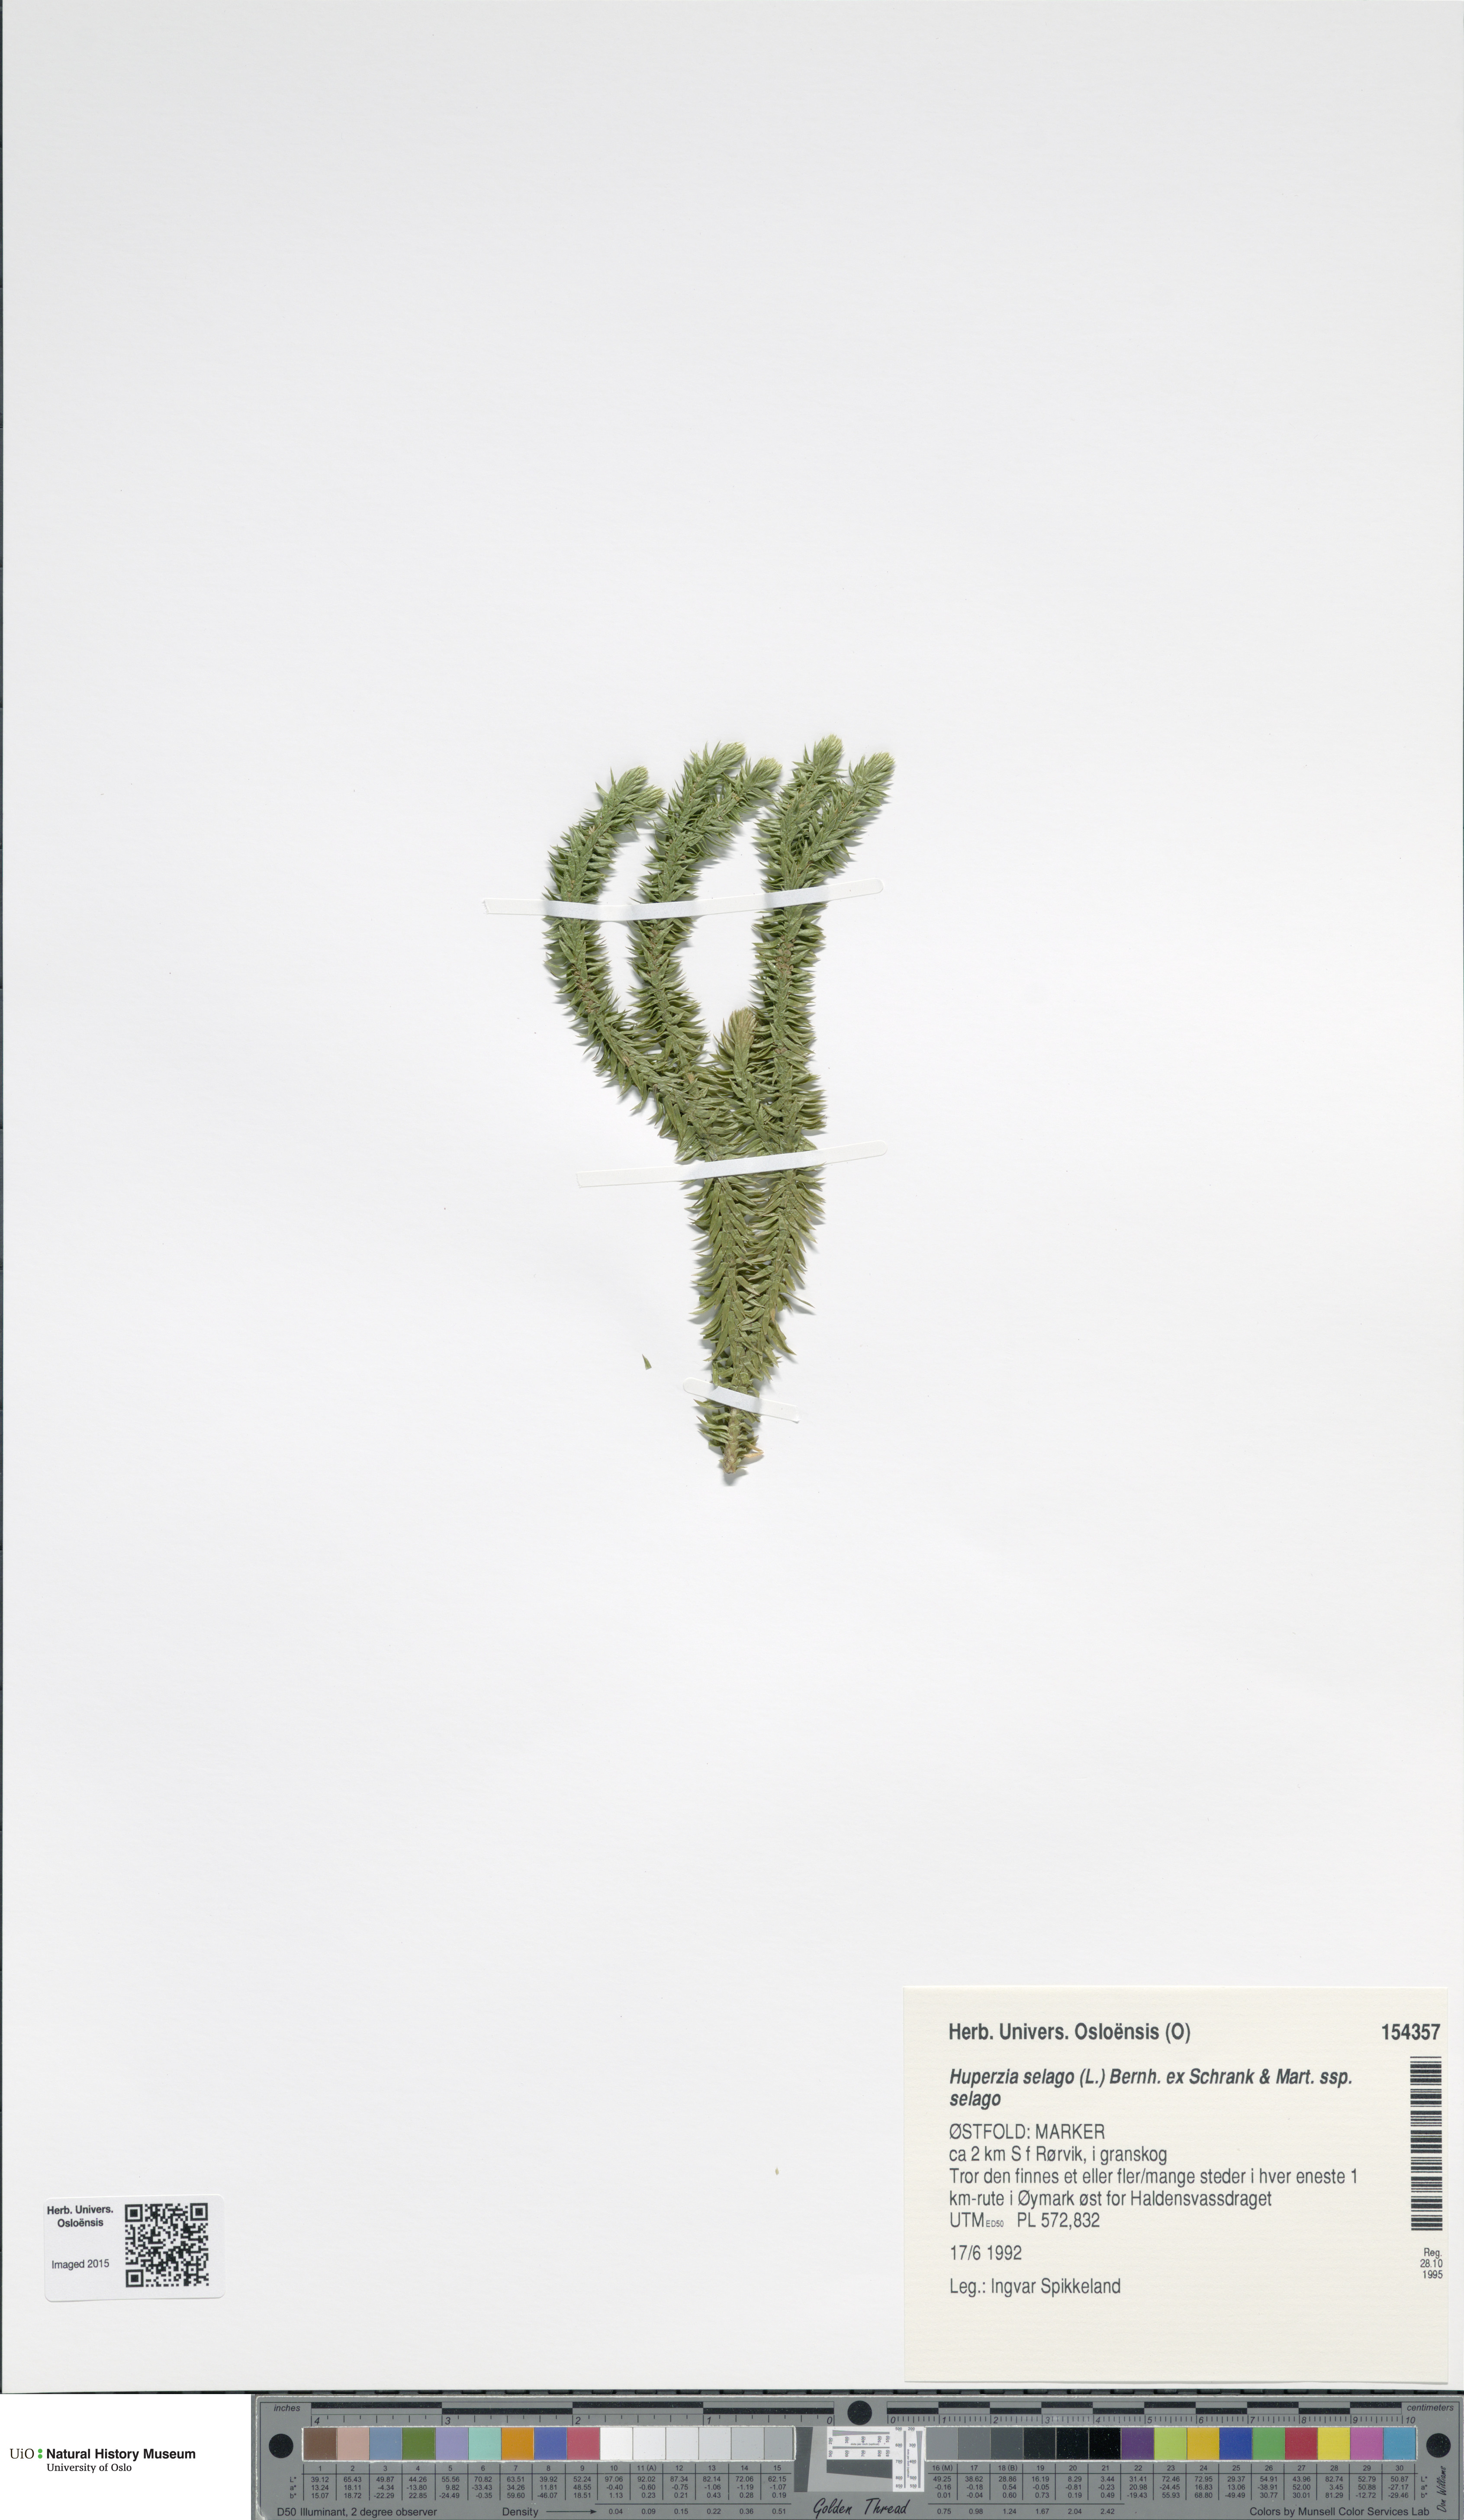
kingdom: Plantae
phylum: Tracheophyta
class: Lycopodiopsida
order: Lycopodiales
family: Lycopodiaceae
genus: Huperzia
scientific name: Huperzia selago
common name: Northern firmoss
